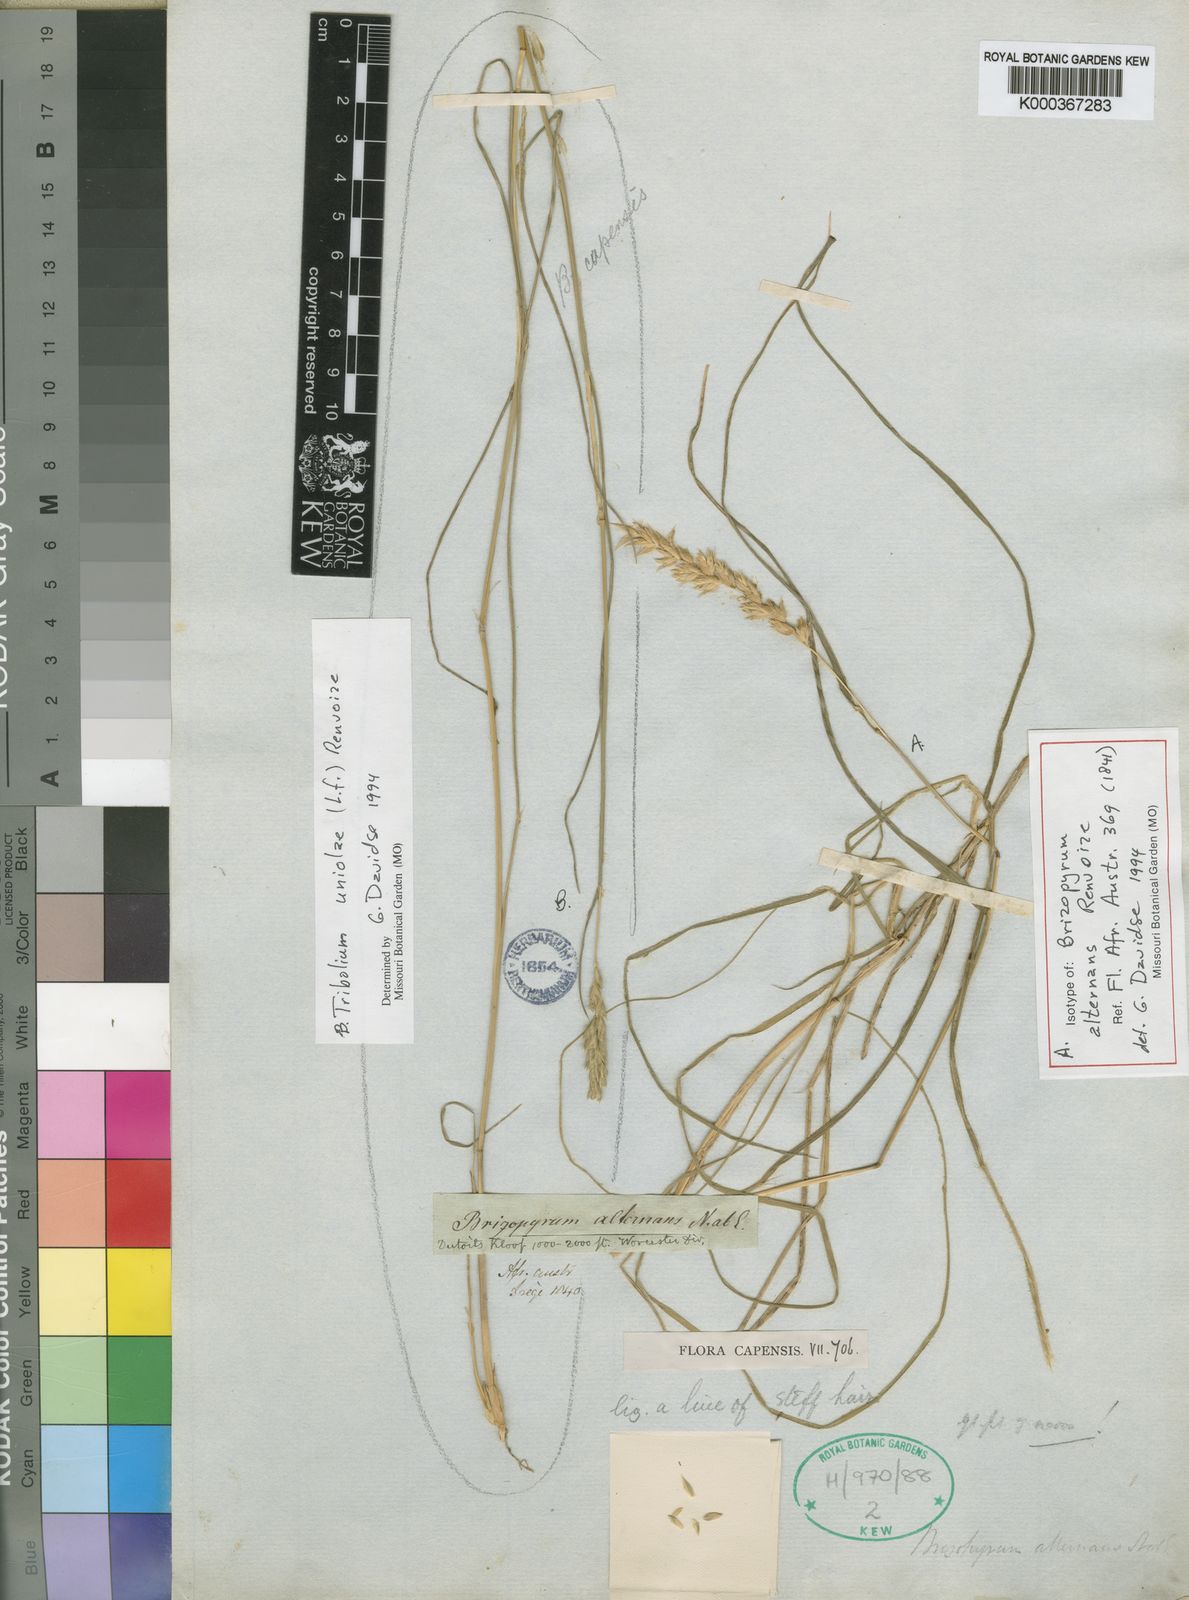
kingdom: Plantae
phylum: Tracheophyta
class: Liliopsida
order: Poales
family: Poaceae
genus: Tribolium
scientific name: Tribolium alternans
